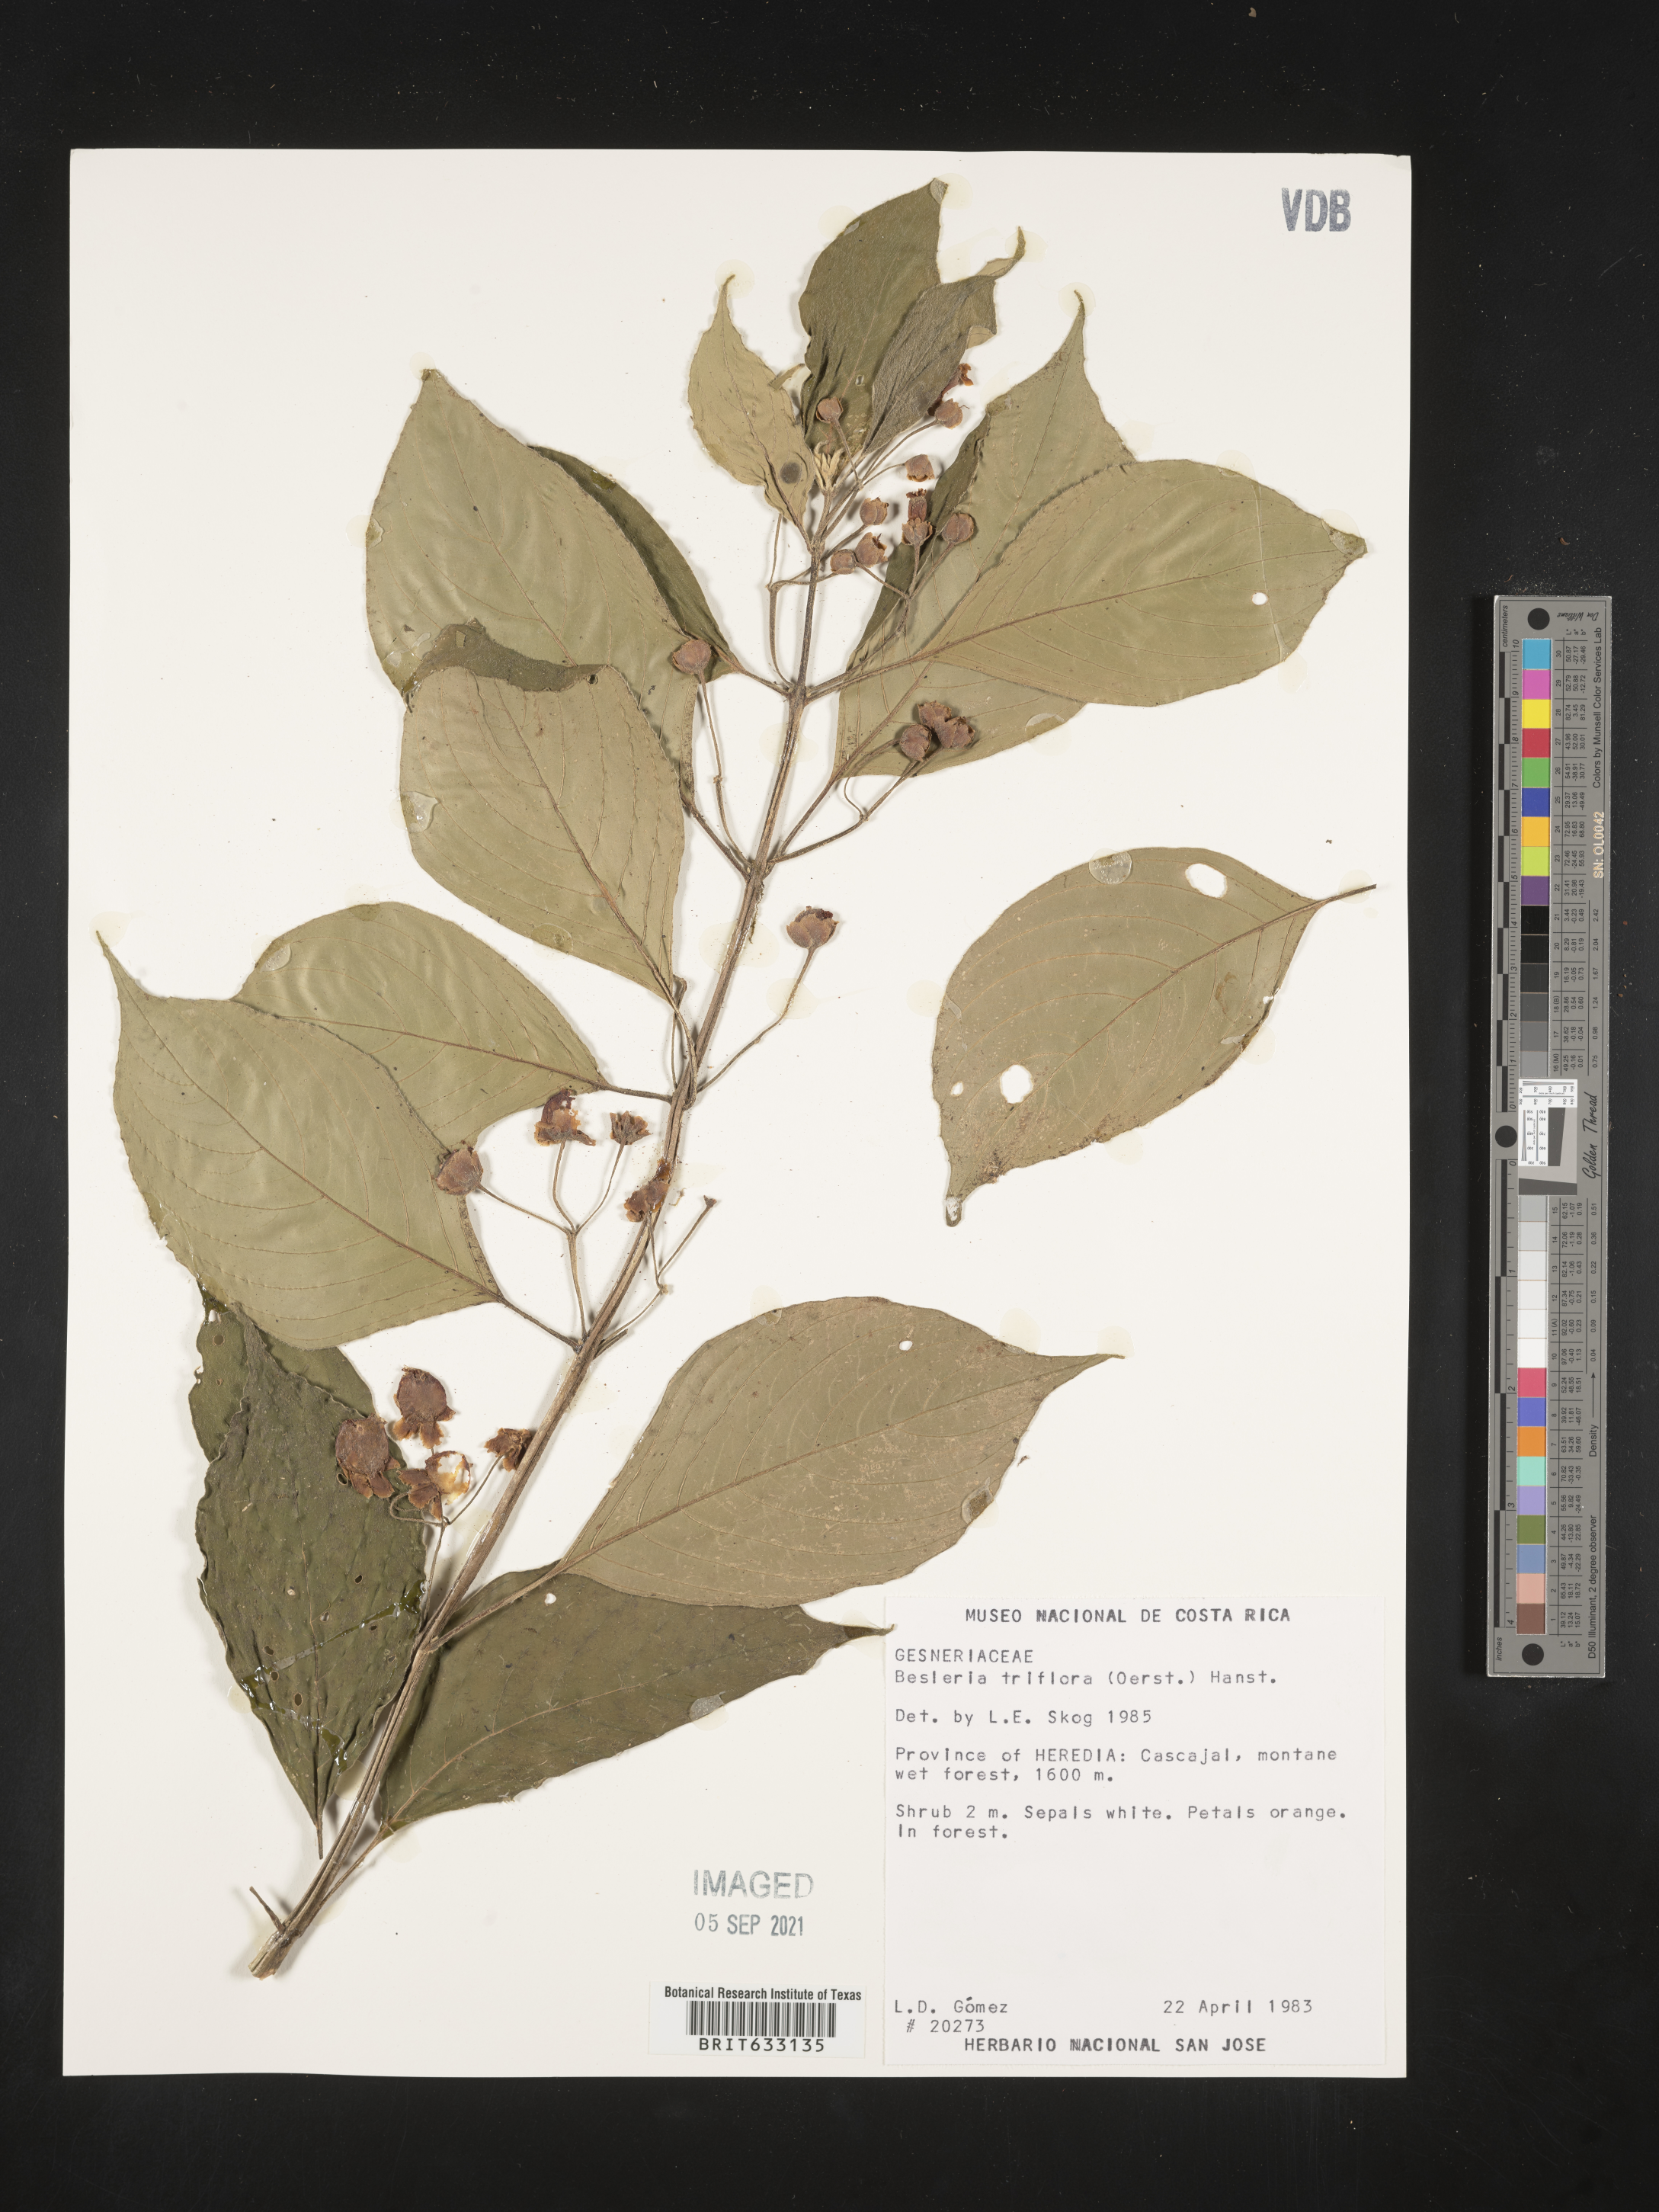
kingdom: Plantae
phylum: Tracheophyta
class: Magnoliopsida
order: Lamiales
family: Gesneriaceae
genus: Besleria
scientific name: Besleria
